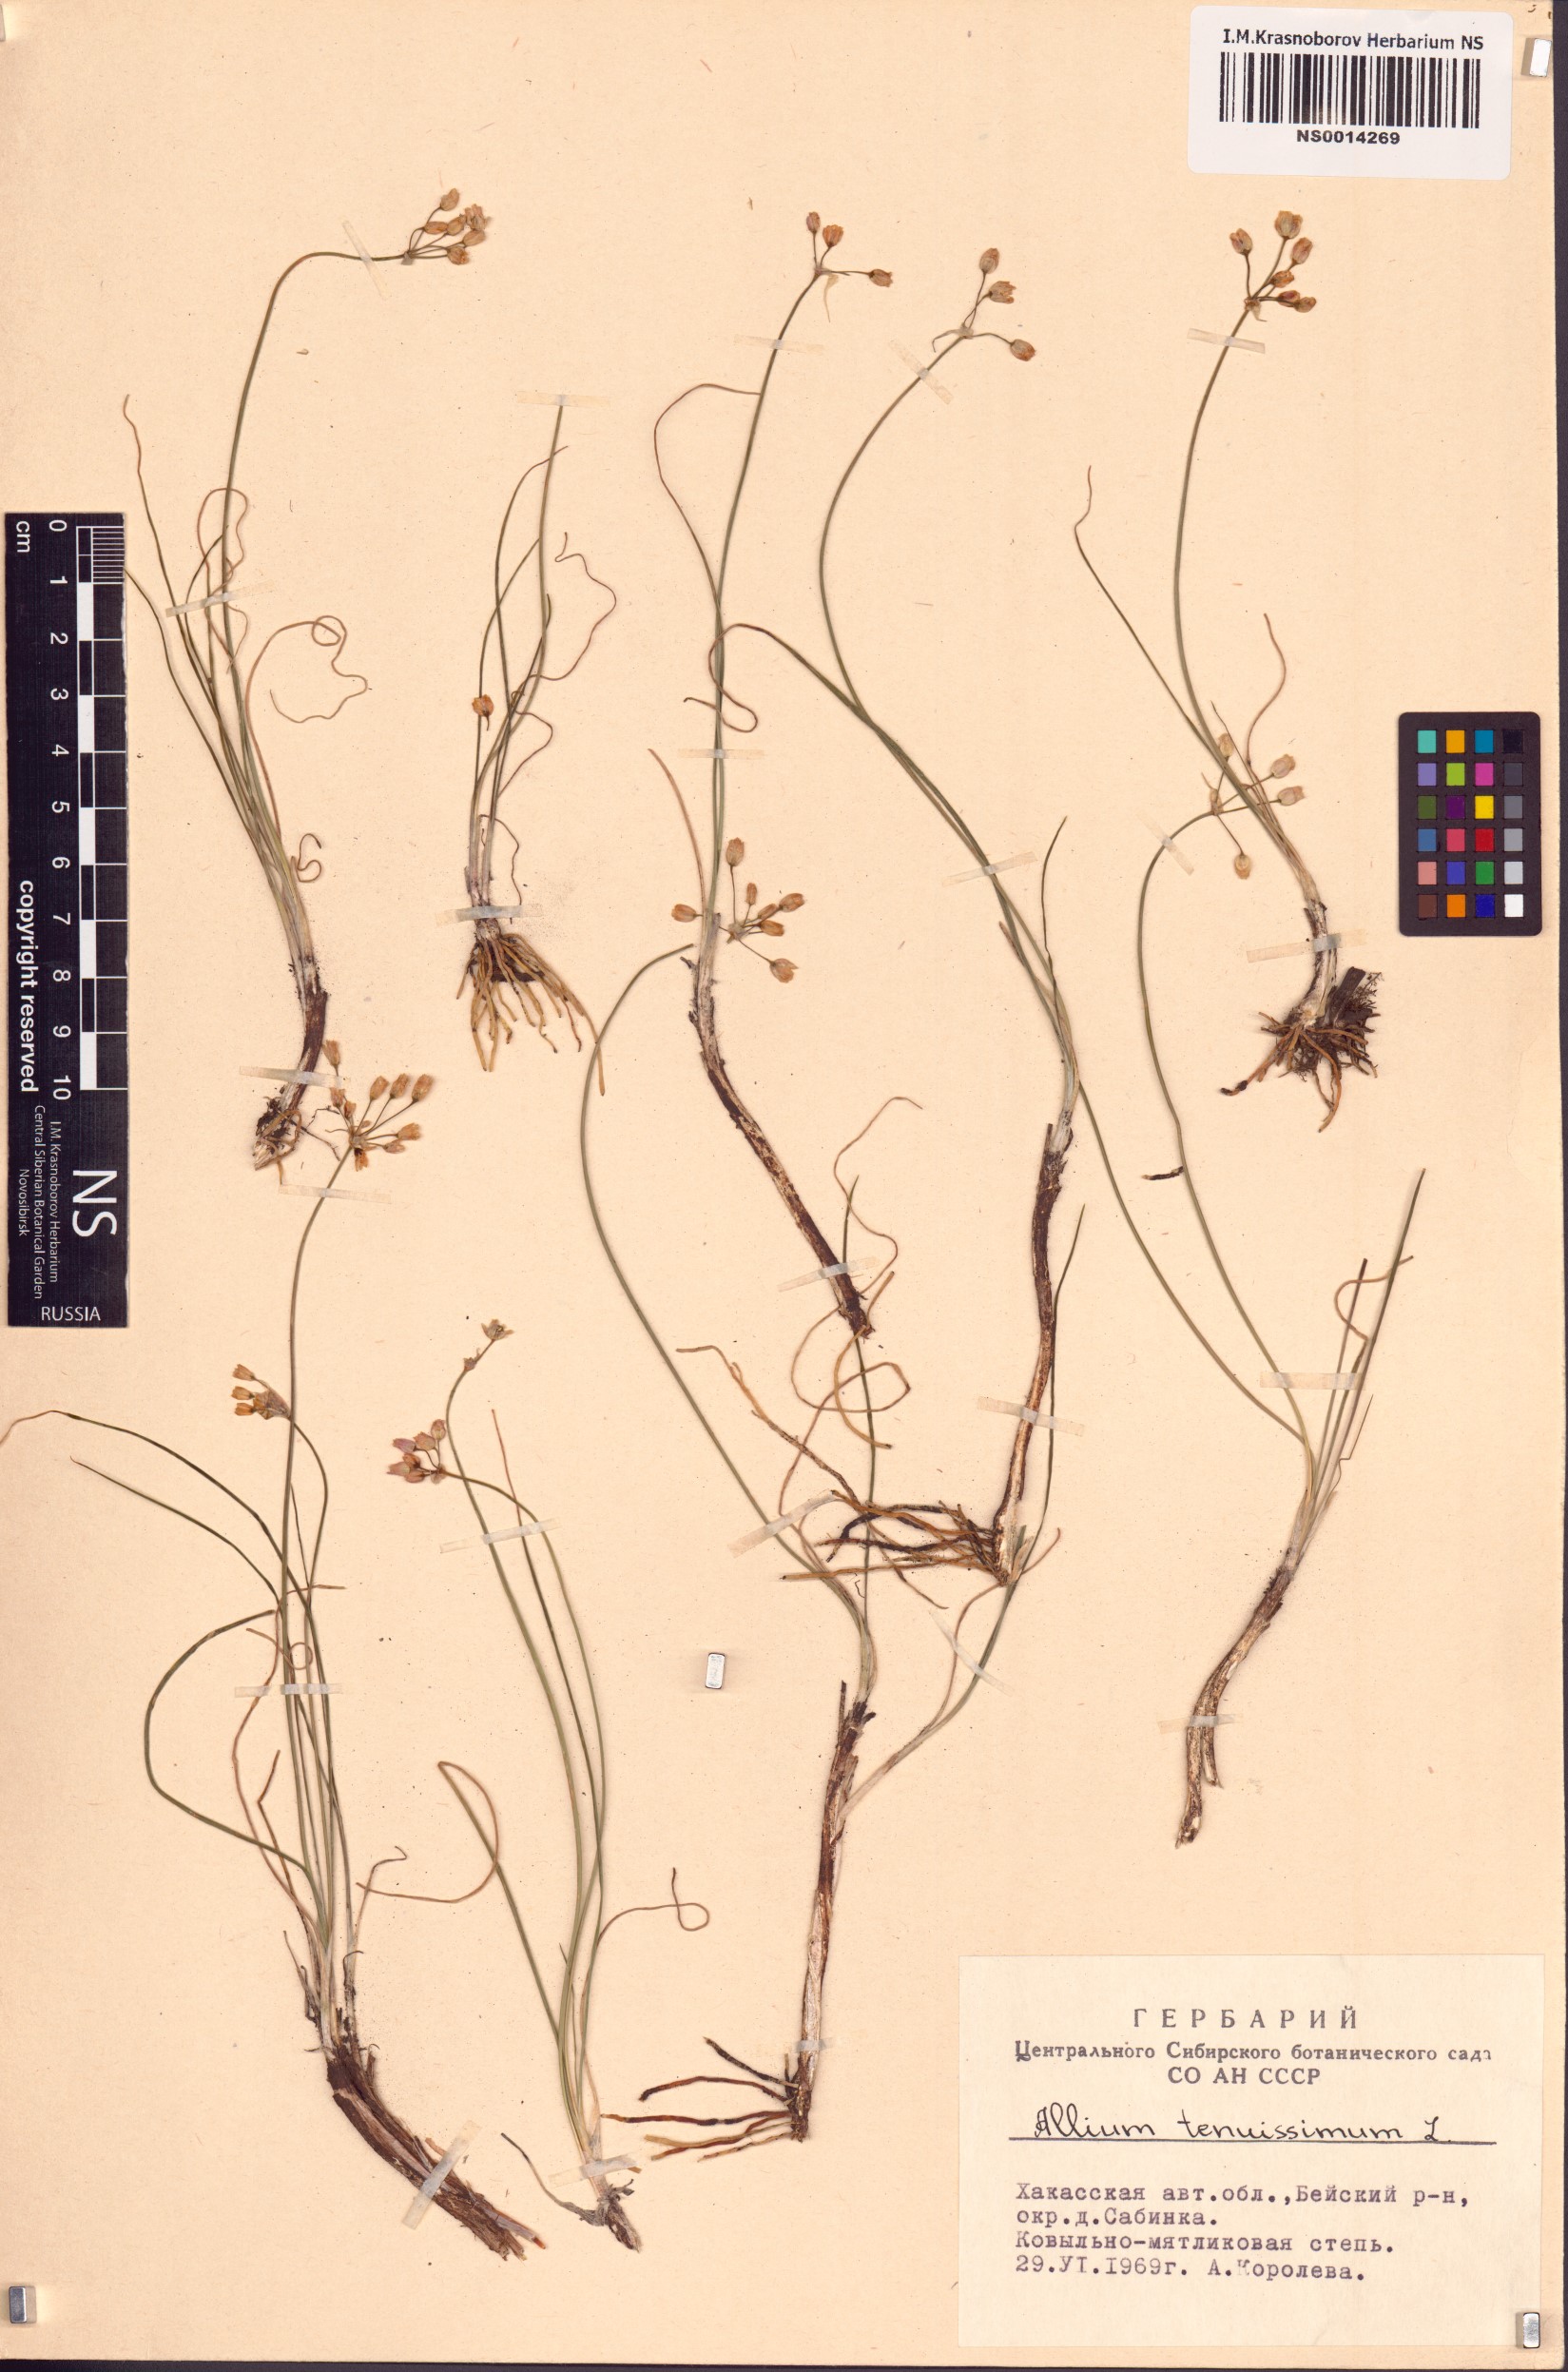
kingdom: Plantae
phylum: Tracheophyta
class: Liliopsida
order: Asparagales
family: Amaryllidaceae
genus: Allium
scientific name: Allium tenuissimum
